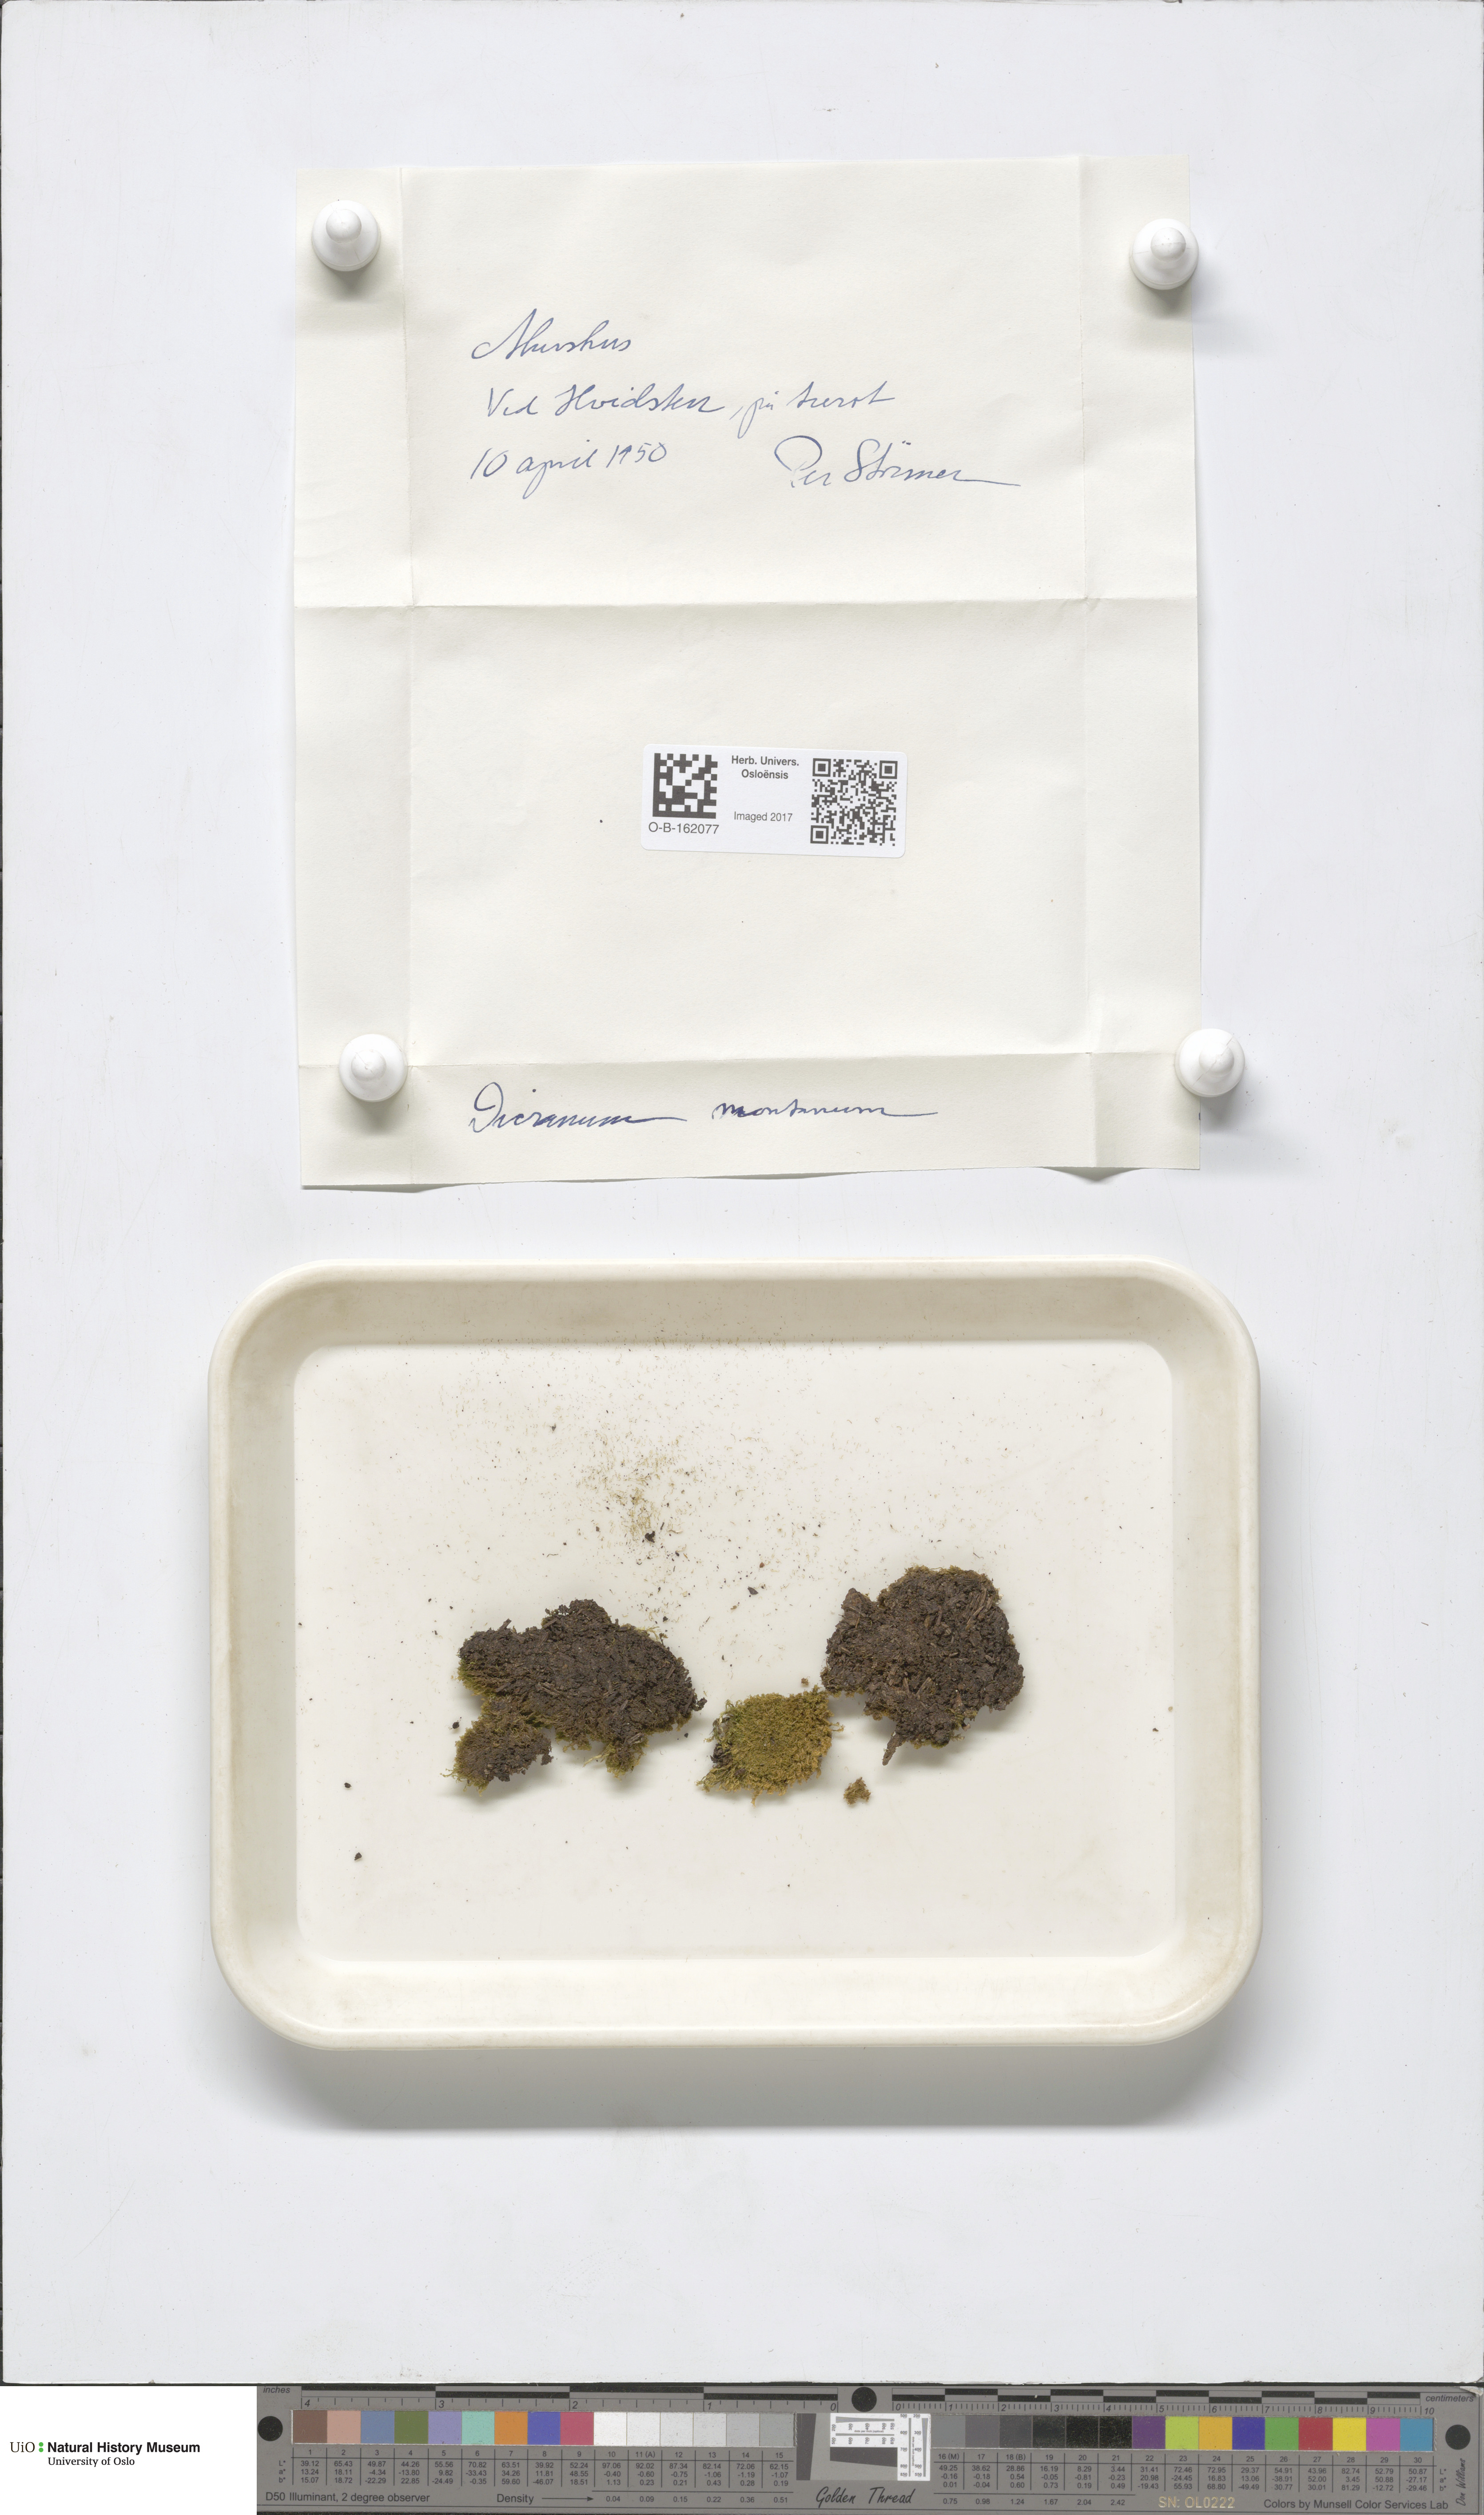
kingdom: Plantae
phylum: Bryophyta
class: Bryopsida
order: Dicranales
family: Dicranaceae
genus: Orthodicranum
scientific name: Orthodicranum montanum
